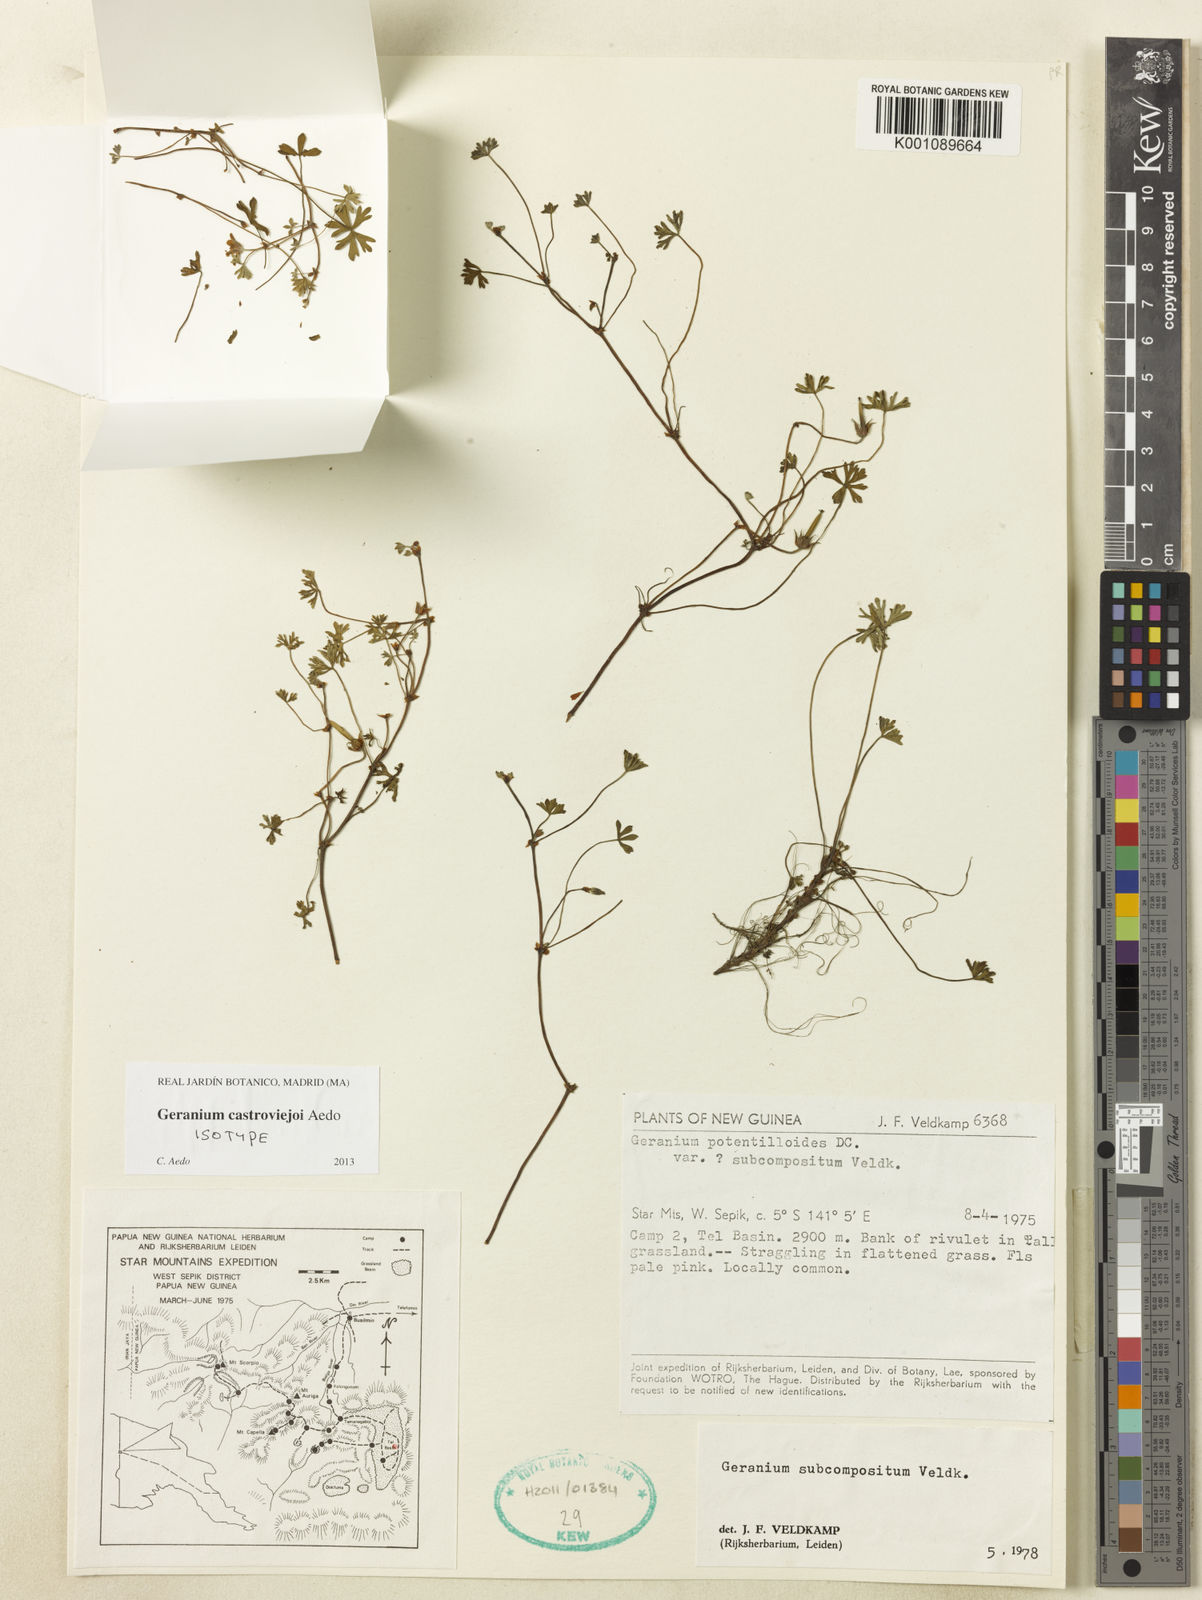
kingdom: Plantae
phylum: Tracheophyta
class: Magnoliopsida
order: Geraniales
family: Geraniaceae
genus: Geranium
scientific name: Geranium castroviejoi
